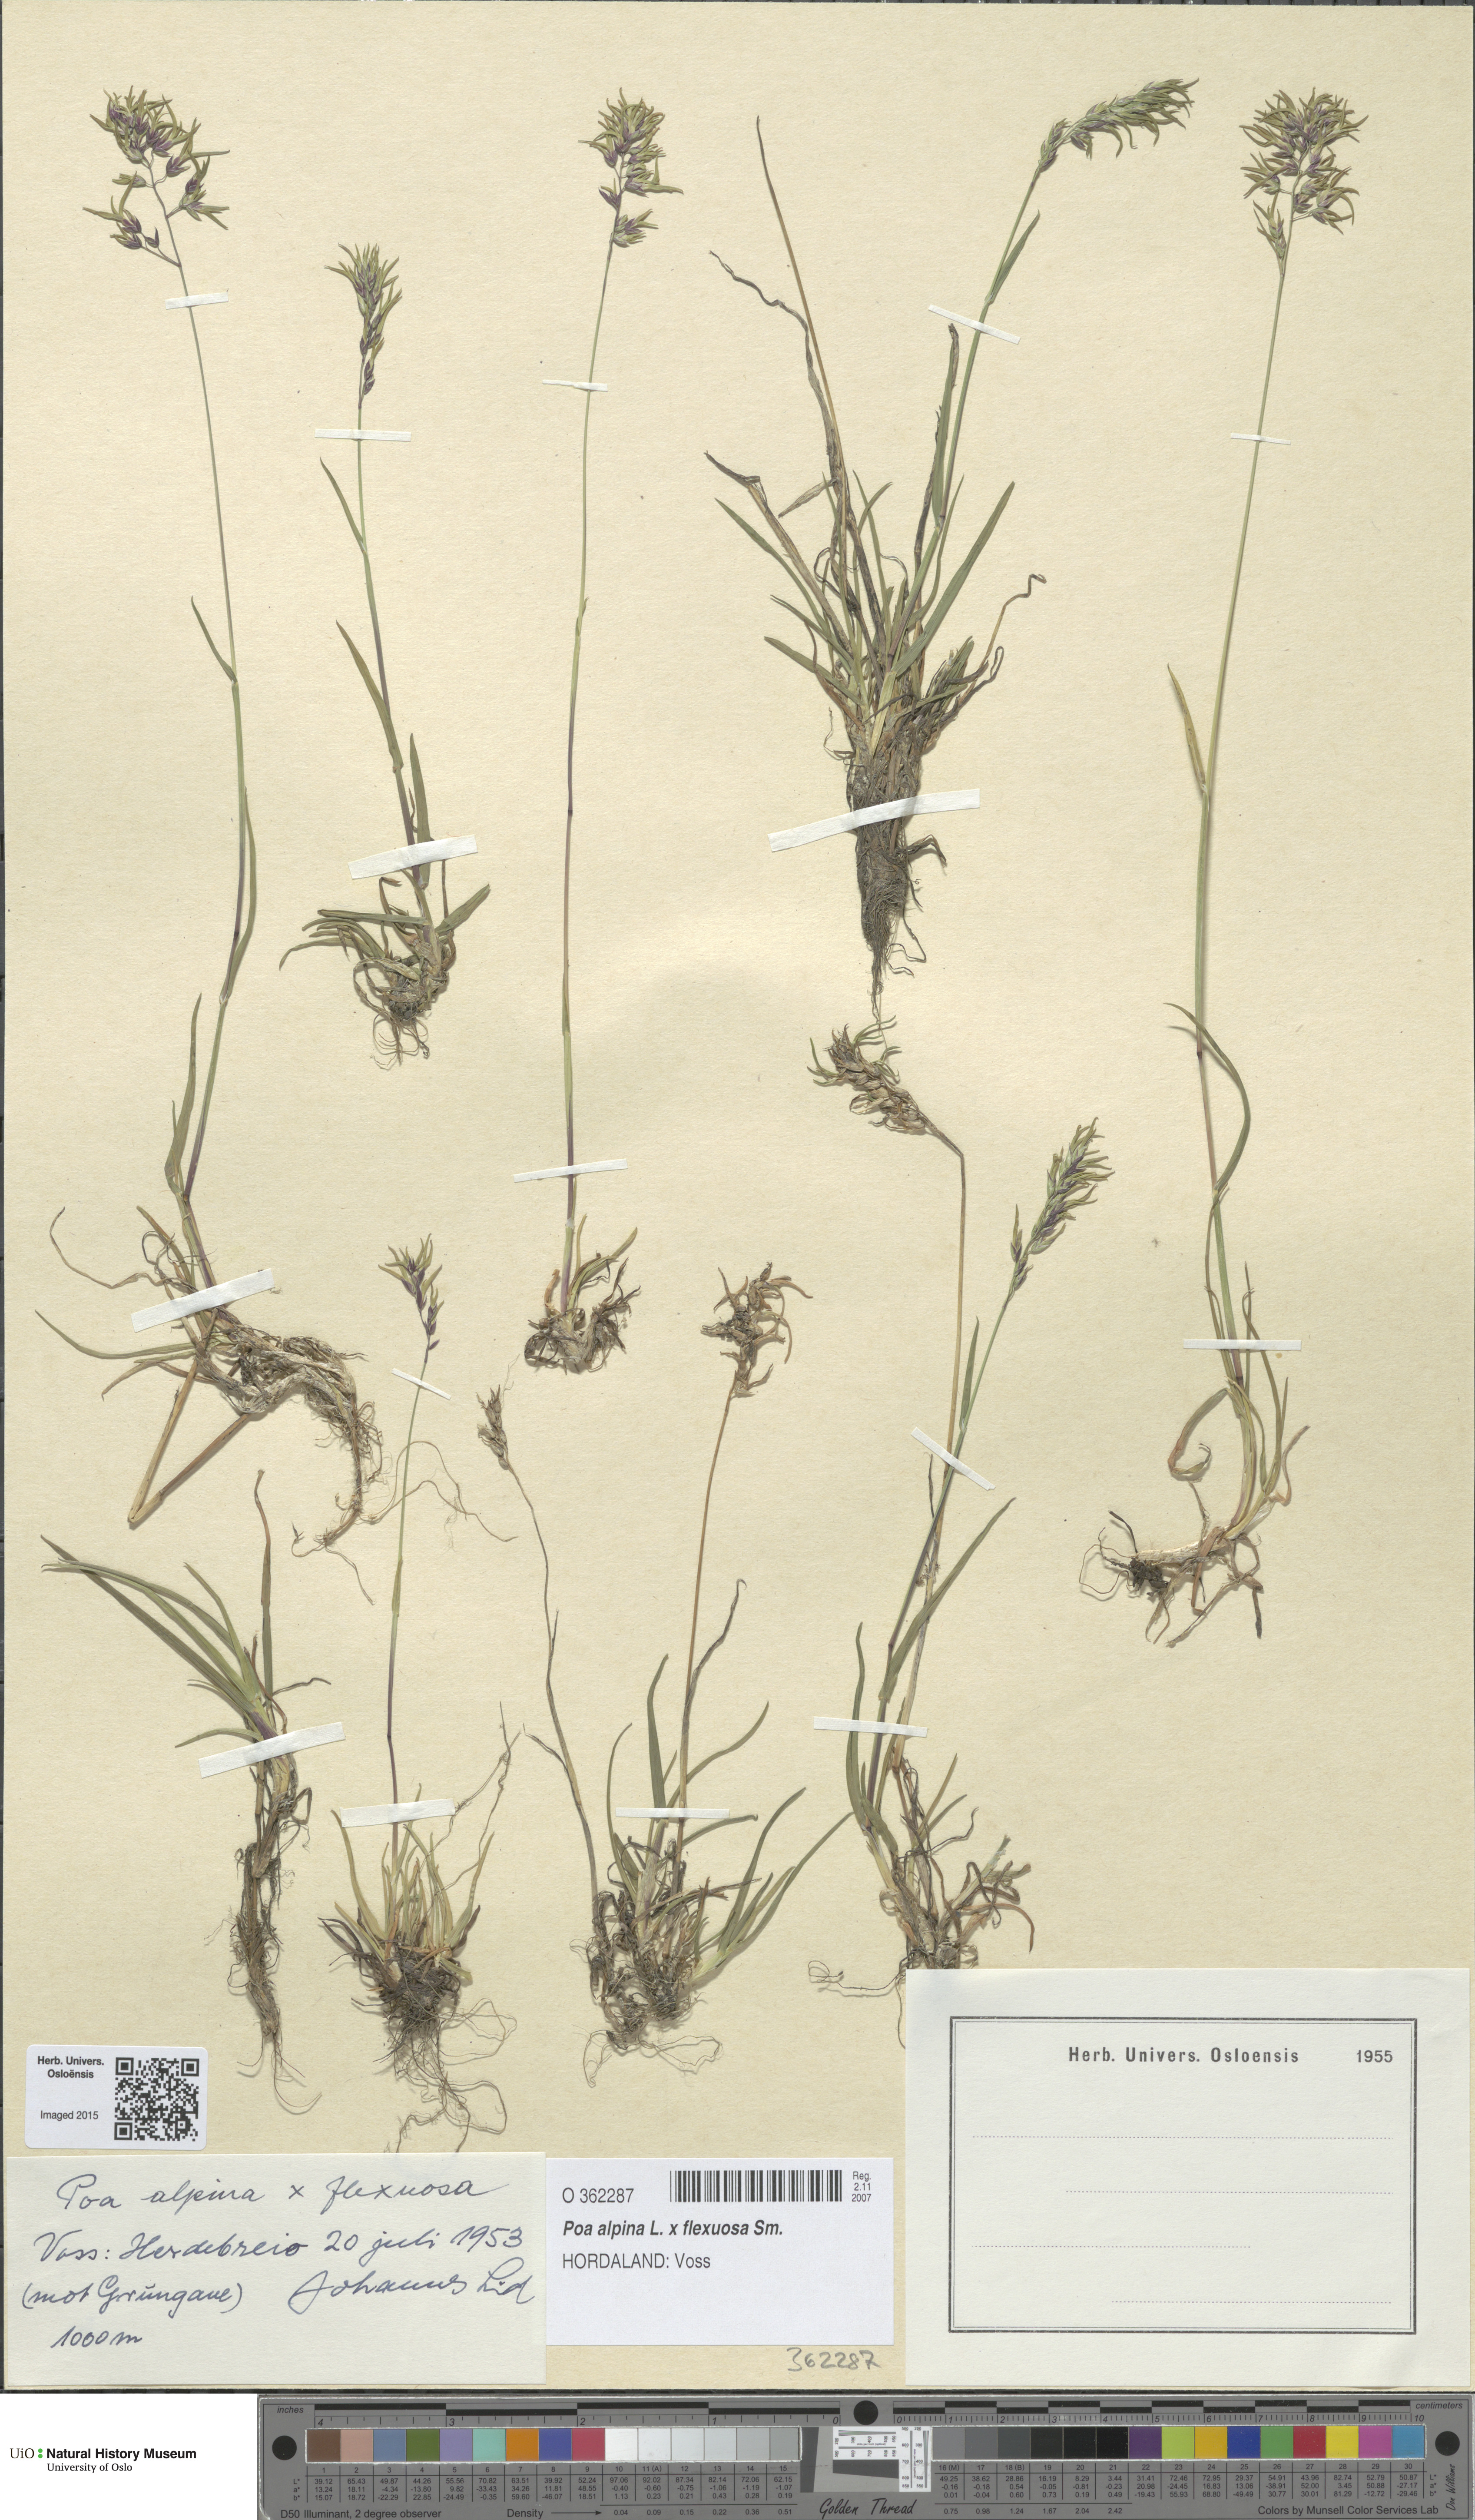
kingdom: Plantae
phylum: Tracheophyta
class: Liliopsida
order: Poales
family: Poaceae
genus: Poa
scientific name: Poa
